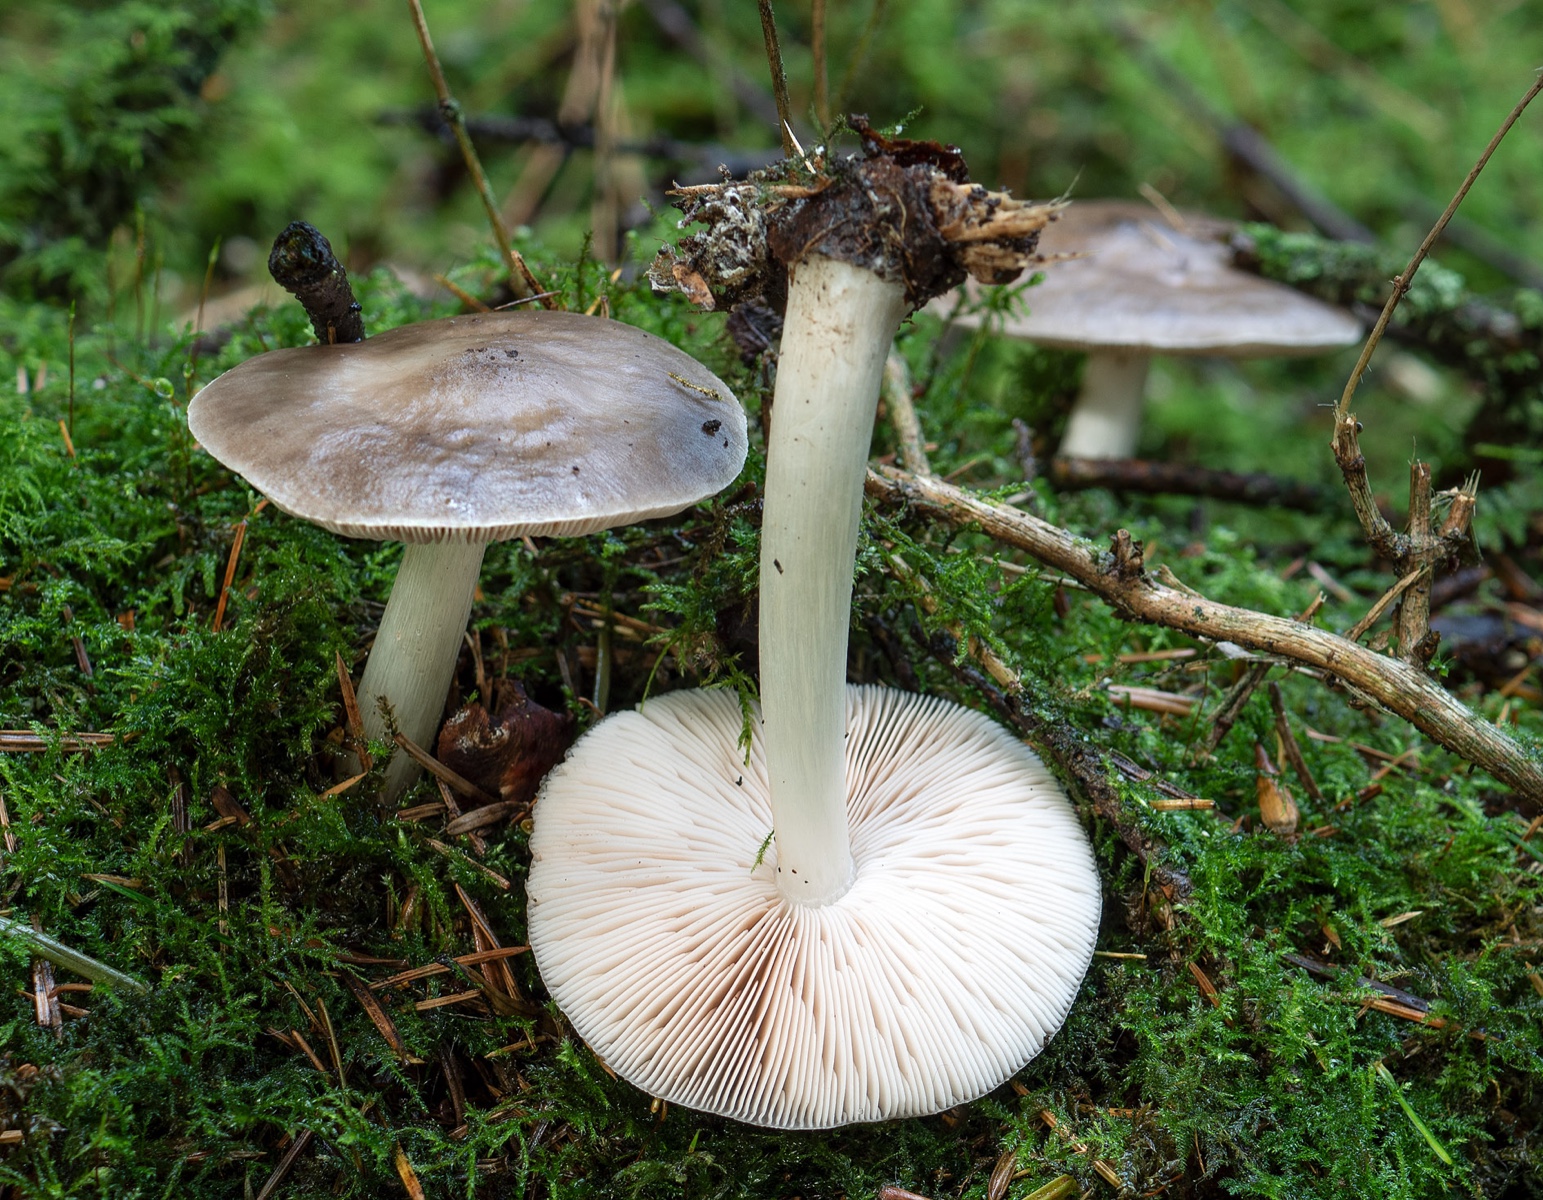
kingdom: Fungi
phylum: Basidiomycota
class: Agaricomycetes
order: Agaricales
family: Pluteaceae
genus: Pluteus
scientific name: Pluteus pouzarianus
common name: plantage-skærmhat
